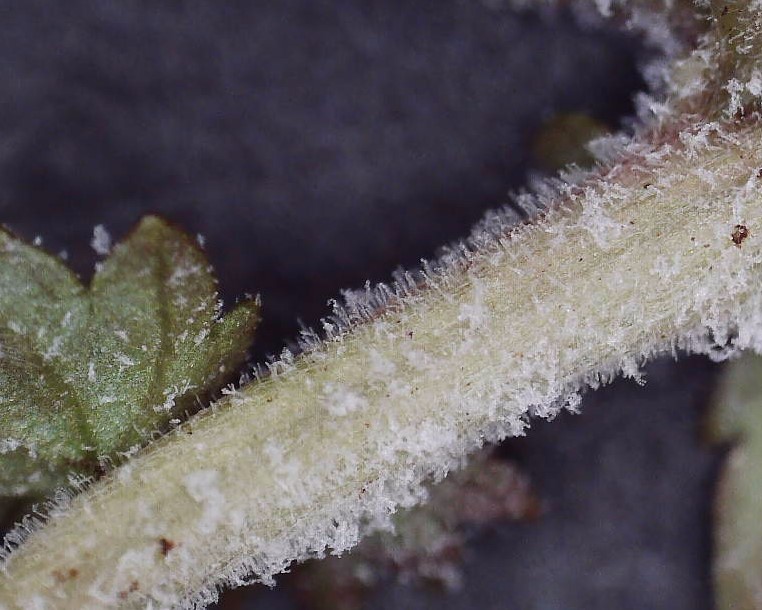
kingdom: Fungi
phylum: Ascomycota
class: Leotiomycetes
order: Helotiales
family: Erysiphaceae
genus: Podosphaera
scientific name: Podosphaera filipendulae
